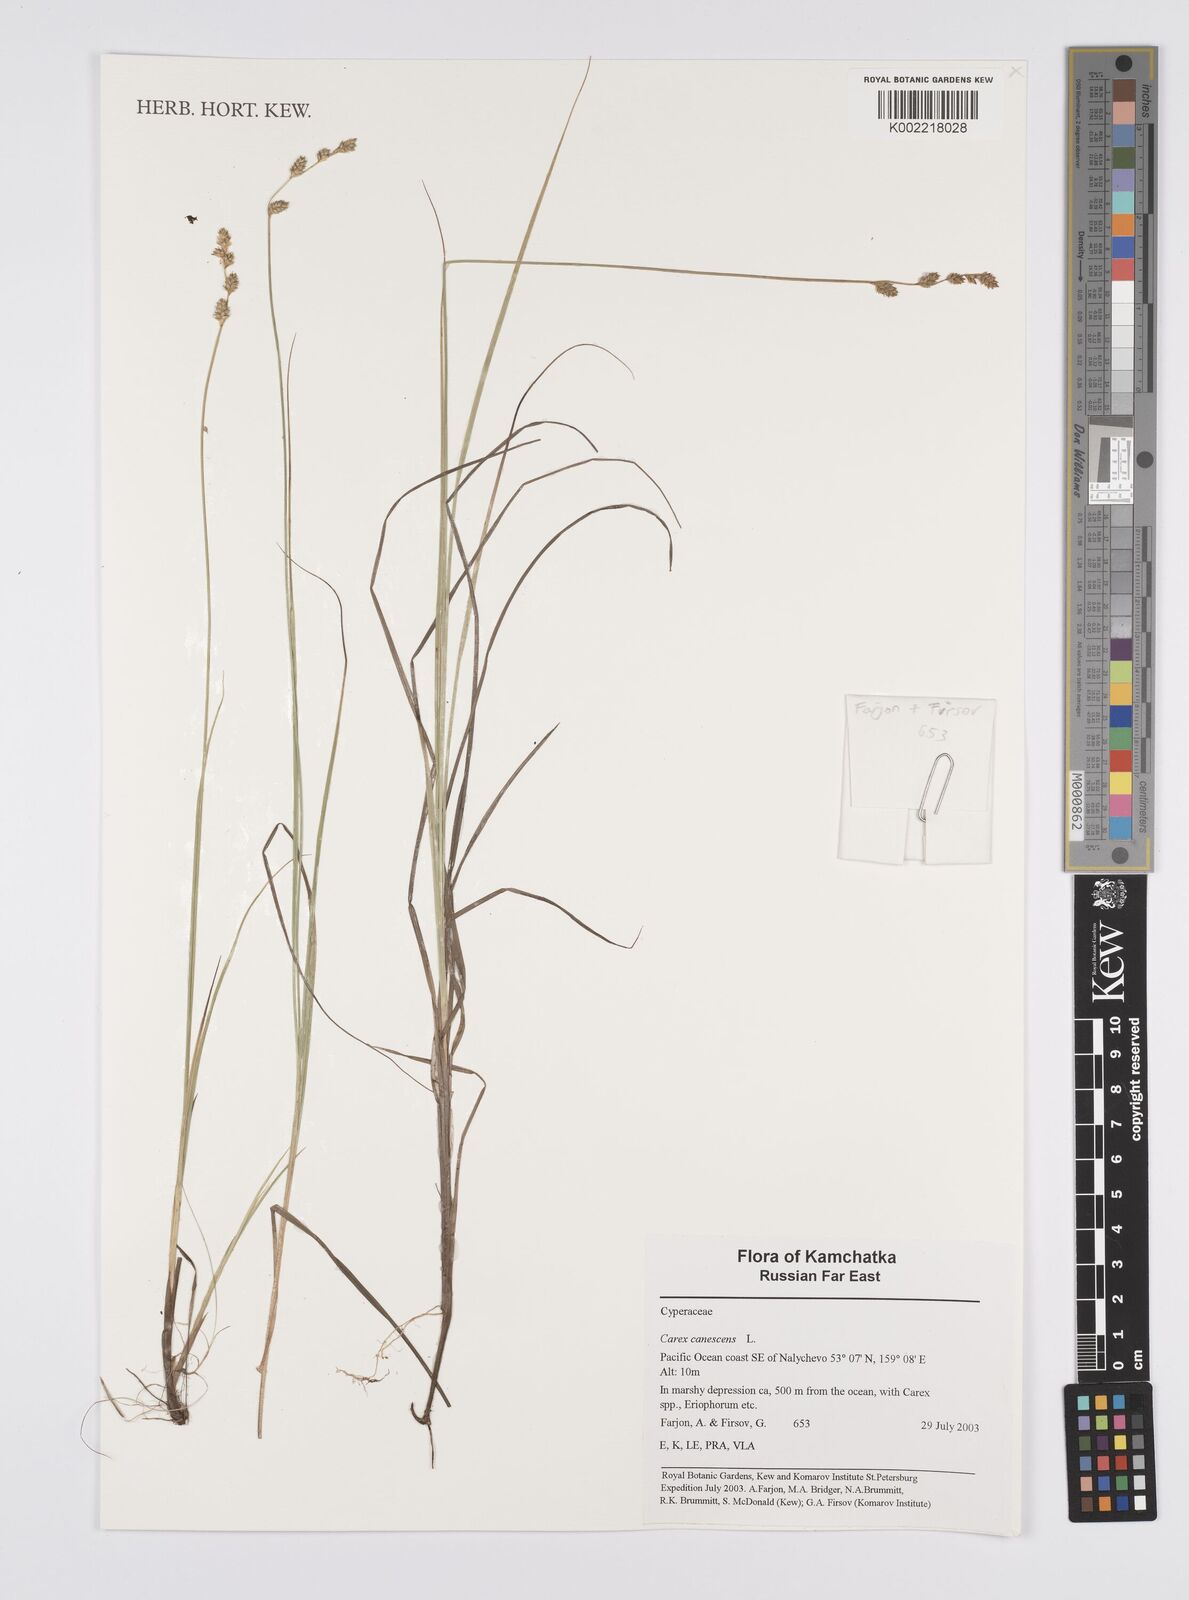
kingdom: Plantae
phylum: Tracheophyta
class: Liliopsida
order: Poales
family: Cyperaceae
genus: Carex
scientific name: Carex canescens
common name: White sedge
